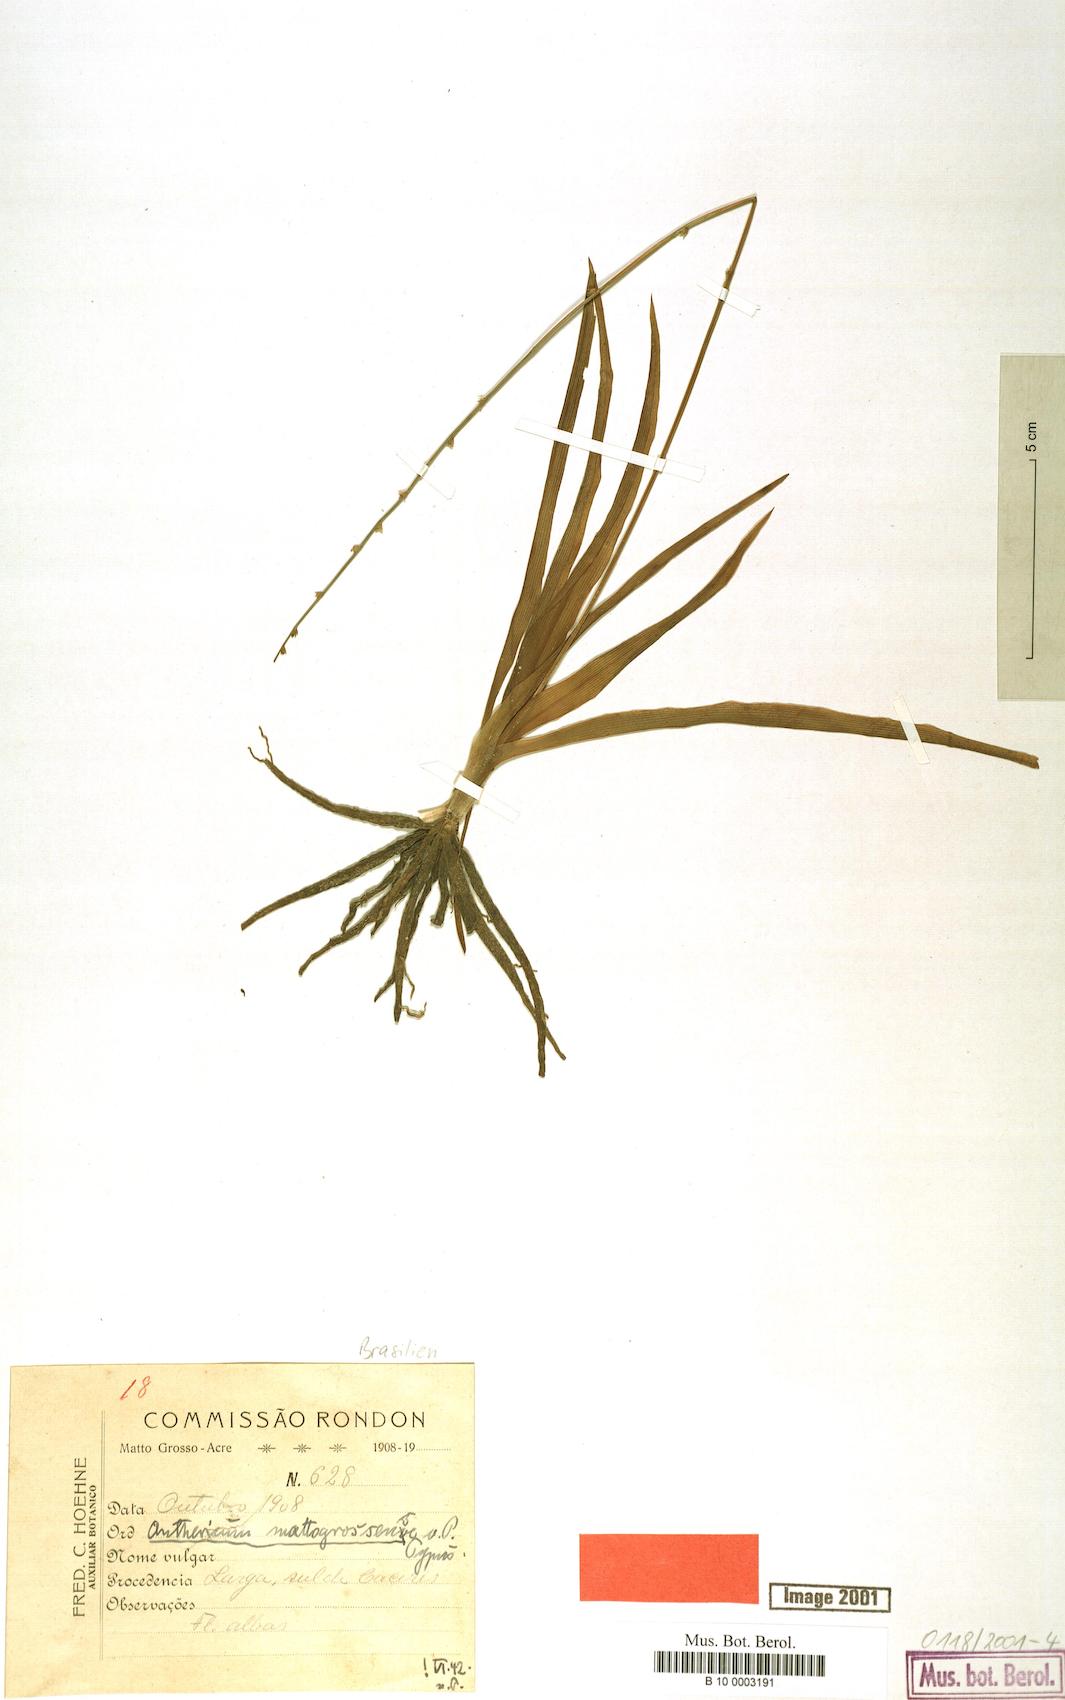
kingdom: Plantae
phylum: Tracheophyta
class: Liliopsida
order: Asparagales
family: Asparagaceae
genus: Hagenbachia
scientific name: Hagenbachia matogrossensis
